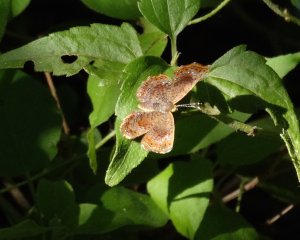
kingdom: Animalia
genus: Calephelis
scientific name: Calephelis perditalis
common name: Rounded Metalmark
